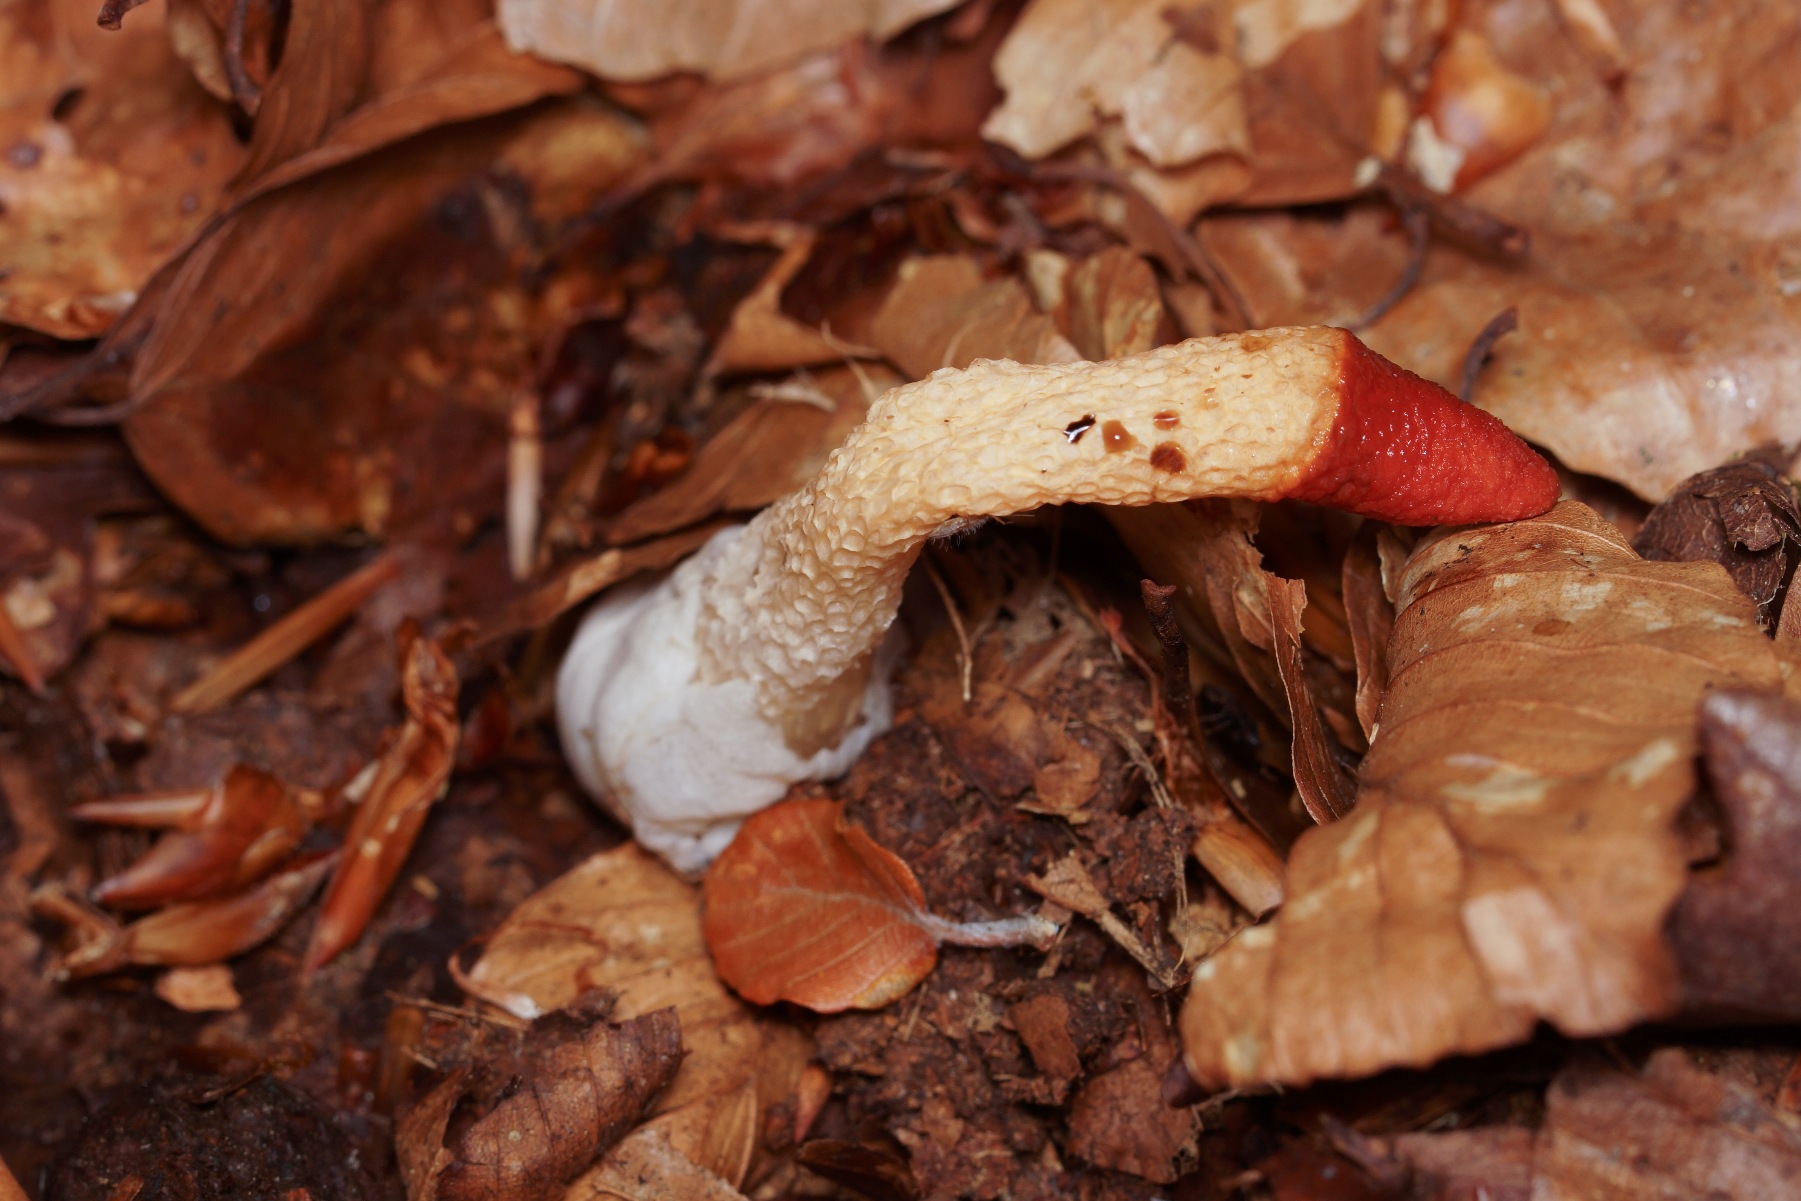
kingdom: Fungi
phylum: Basidiomycota
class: Agaricomycetes
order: Phallales
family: Phallaceae
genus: Mutinus
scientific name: Mutinus caninus
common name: Hunde-stinksvamp
